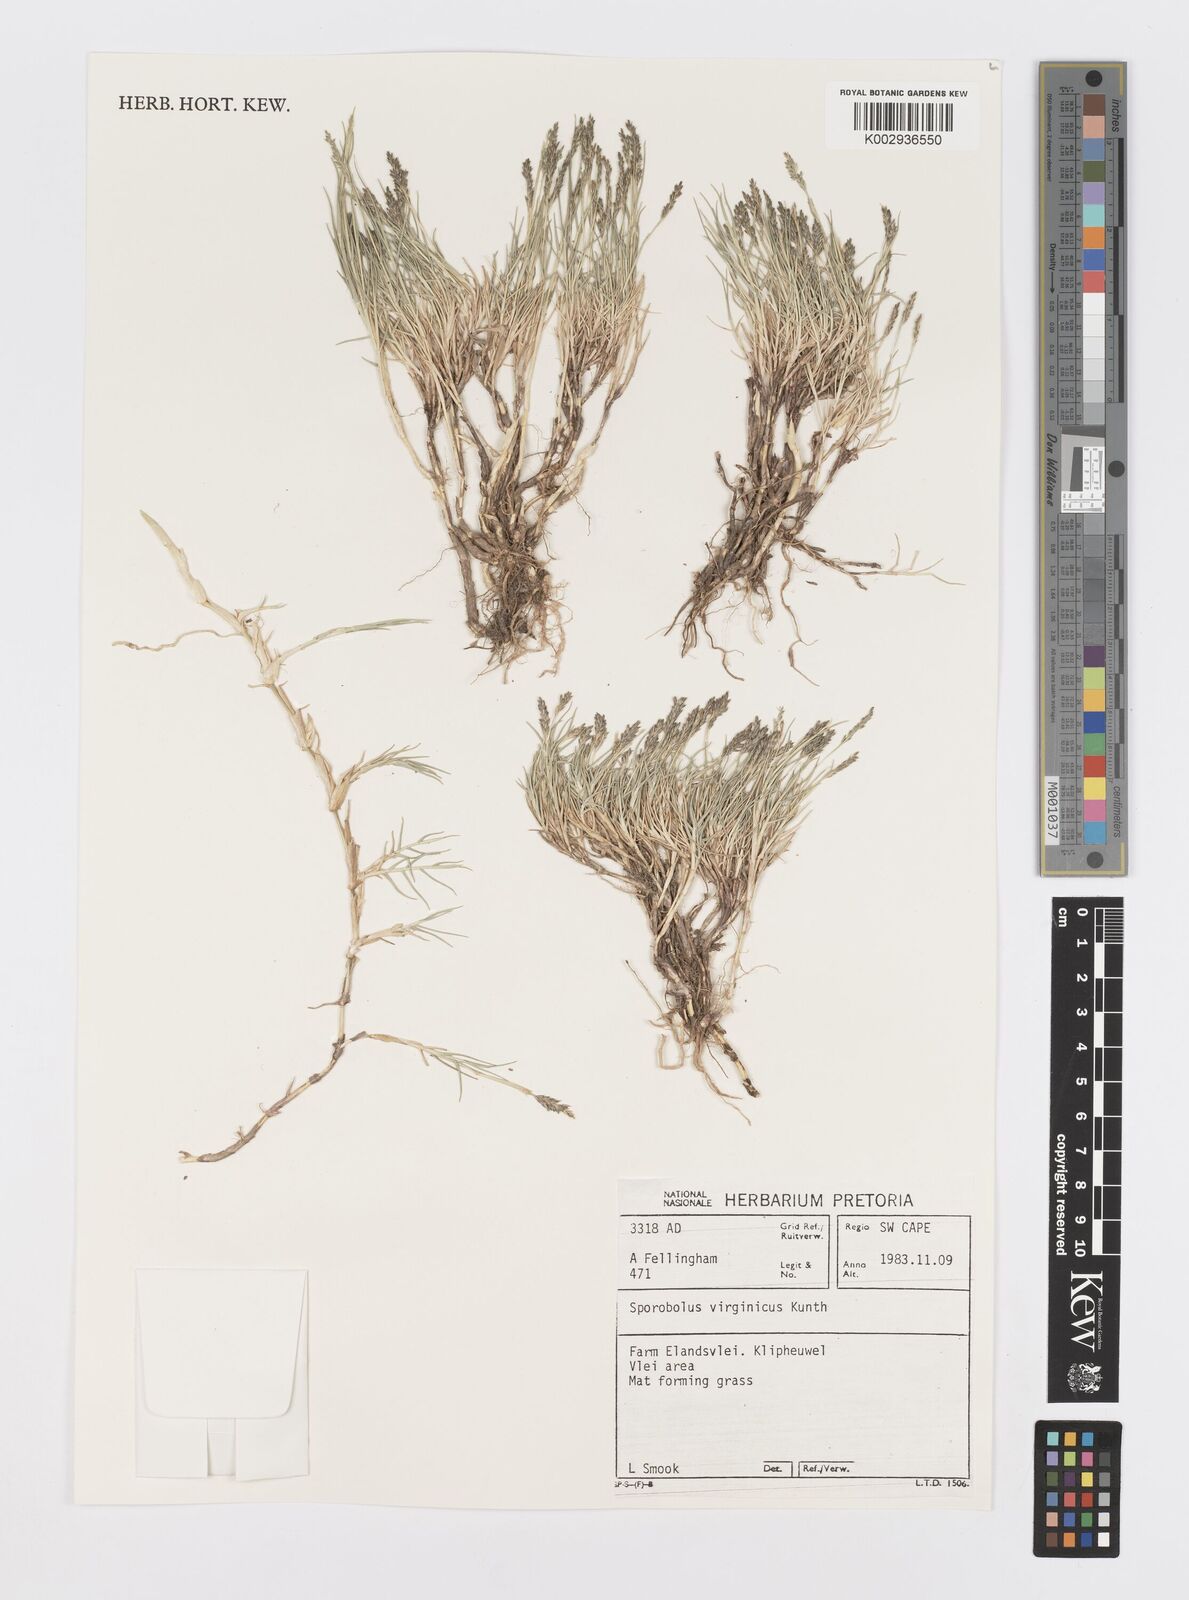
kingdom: Plantae
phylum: Tracheophyta
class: Liliopsida
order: Poales
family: Poaceae
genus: Sporobolus
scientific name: Sporobolus virginicus
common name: Beach dropseed
